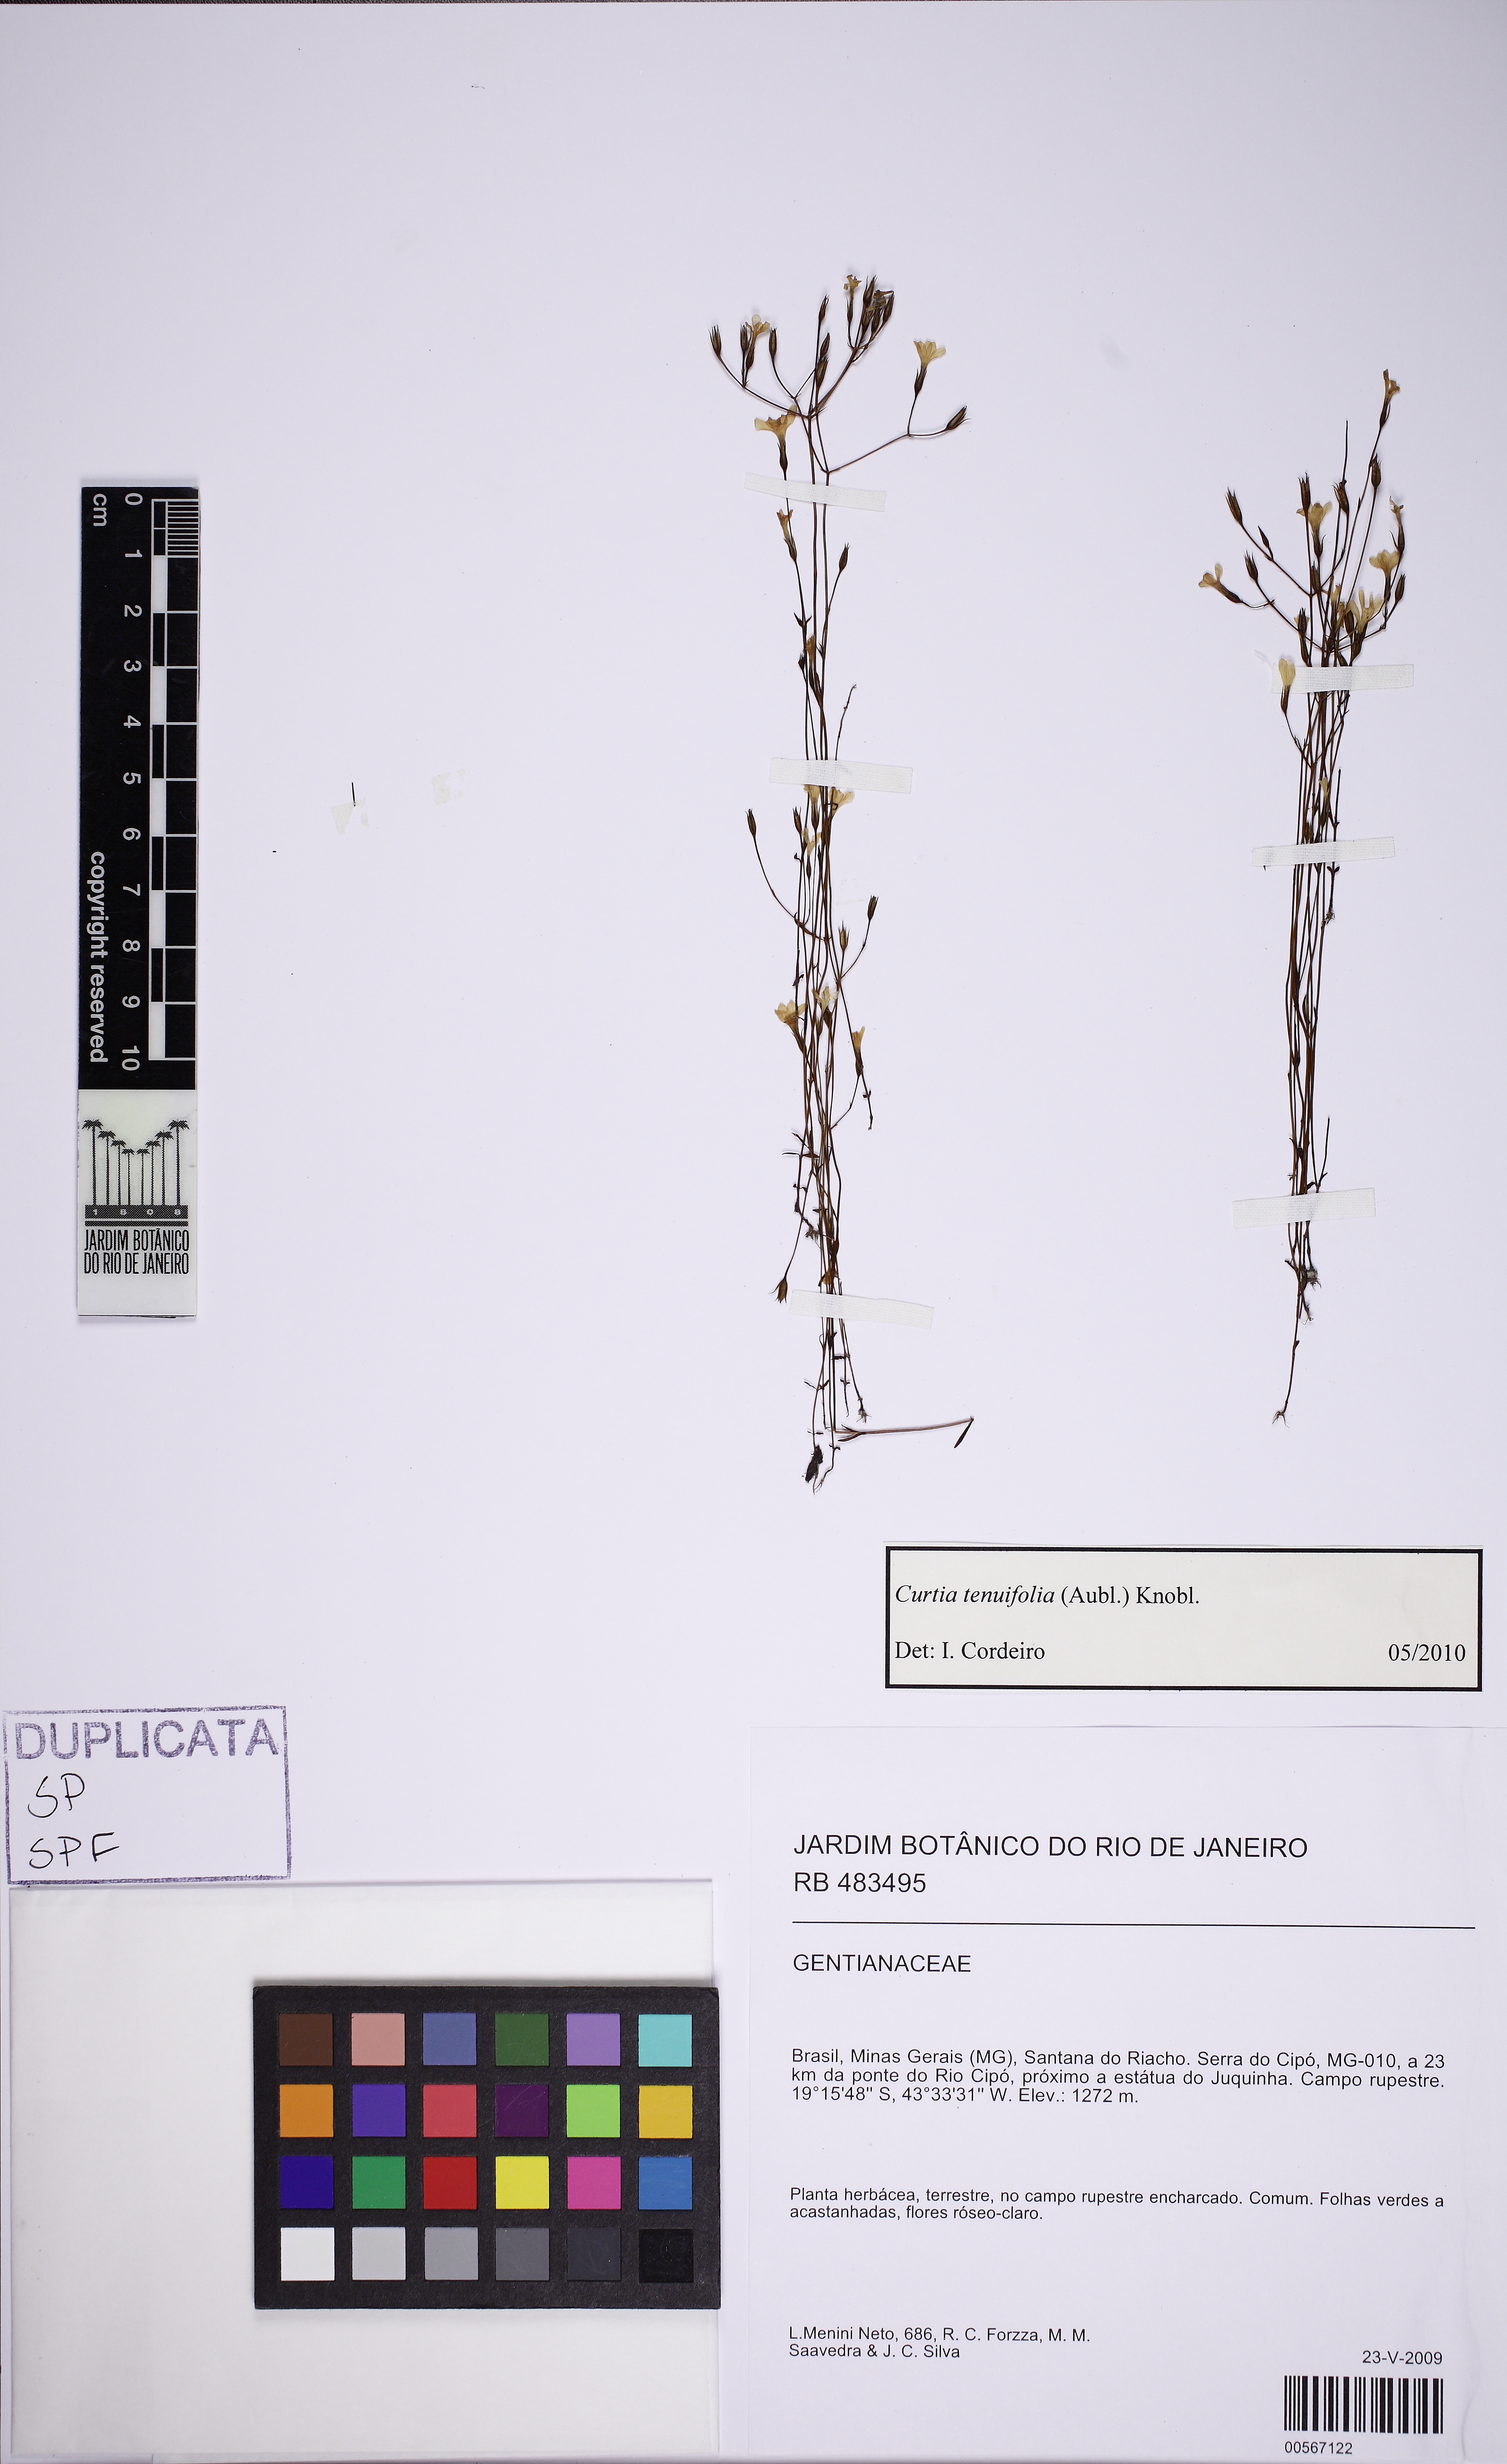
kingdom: Plantae
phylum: Tracheophyta
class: Magnoliopsida
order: Gentianales
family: Gentianaceae
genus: Curtia
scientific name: Curtia tenuifolia
